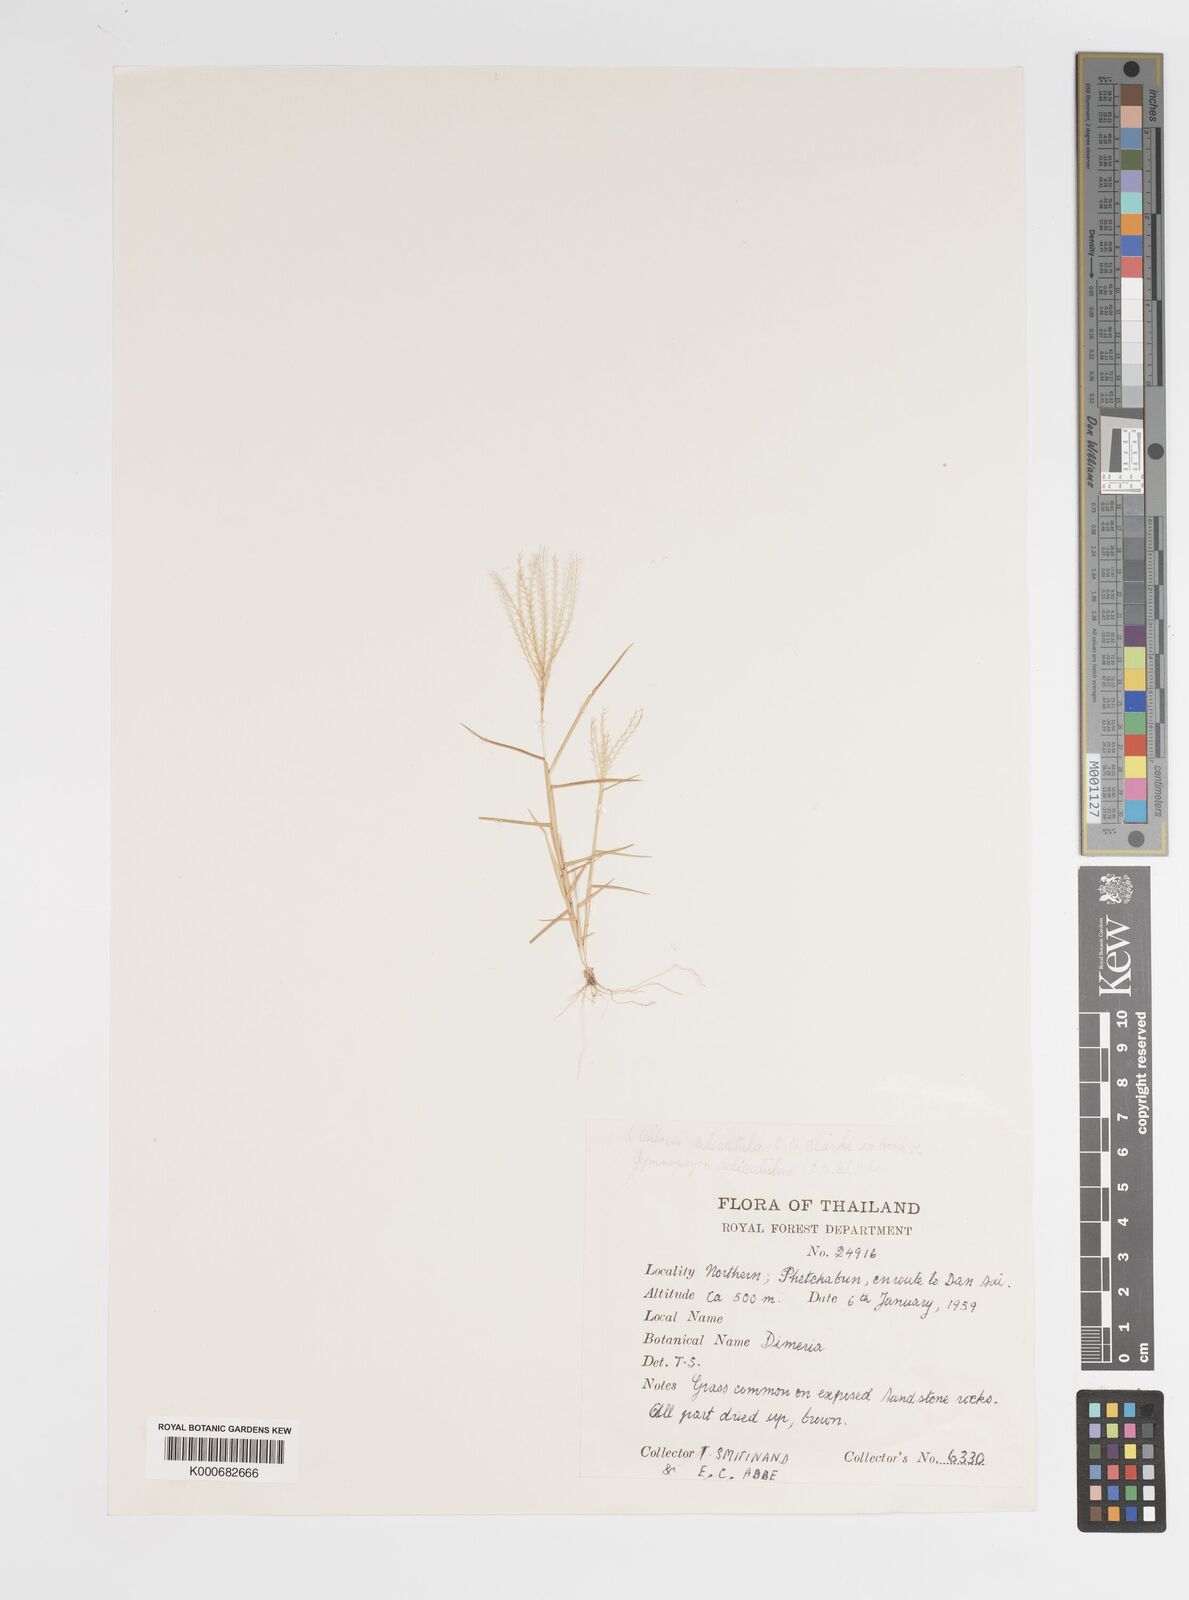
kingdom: Plantae
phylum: Tracheophyta
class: Liliopsida
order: Poales
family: Poaceae
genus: Gymnopogon
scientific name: Gymnopogon delicatulus
